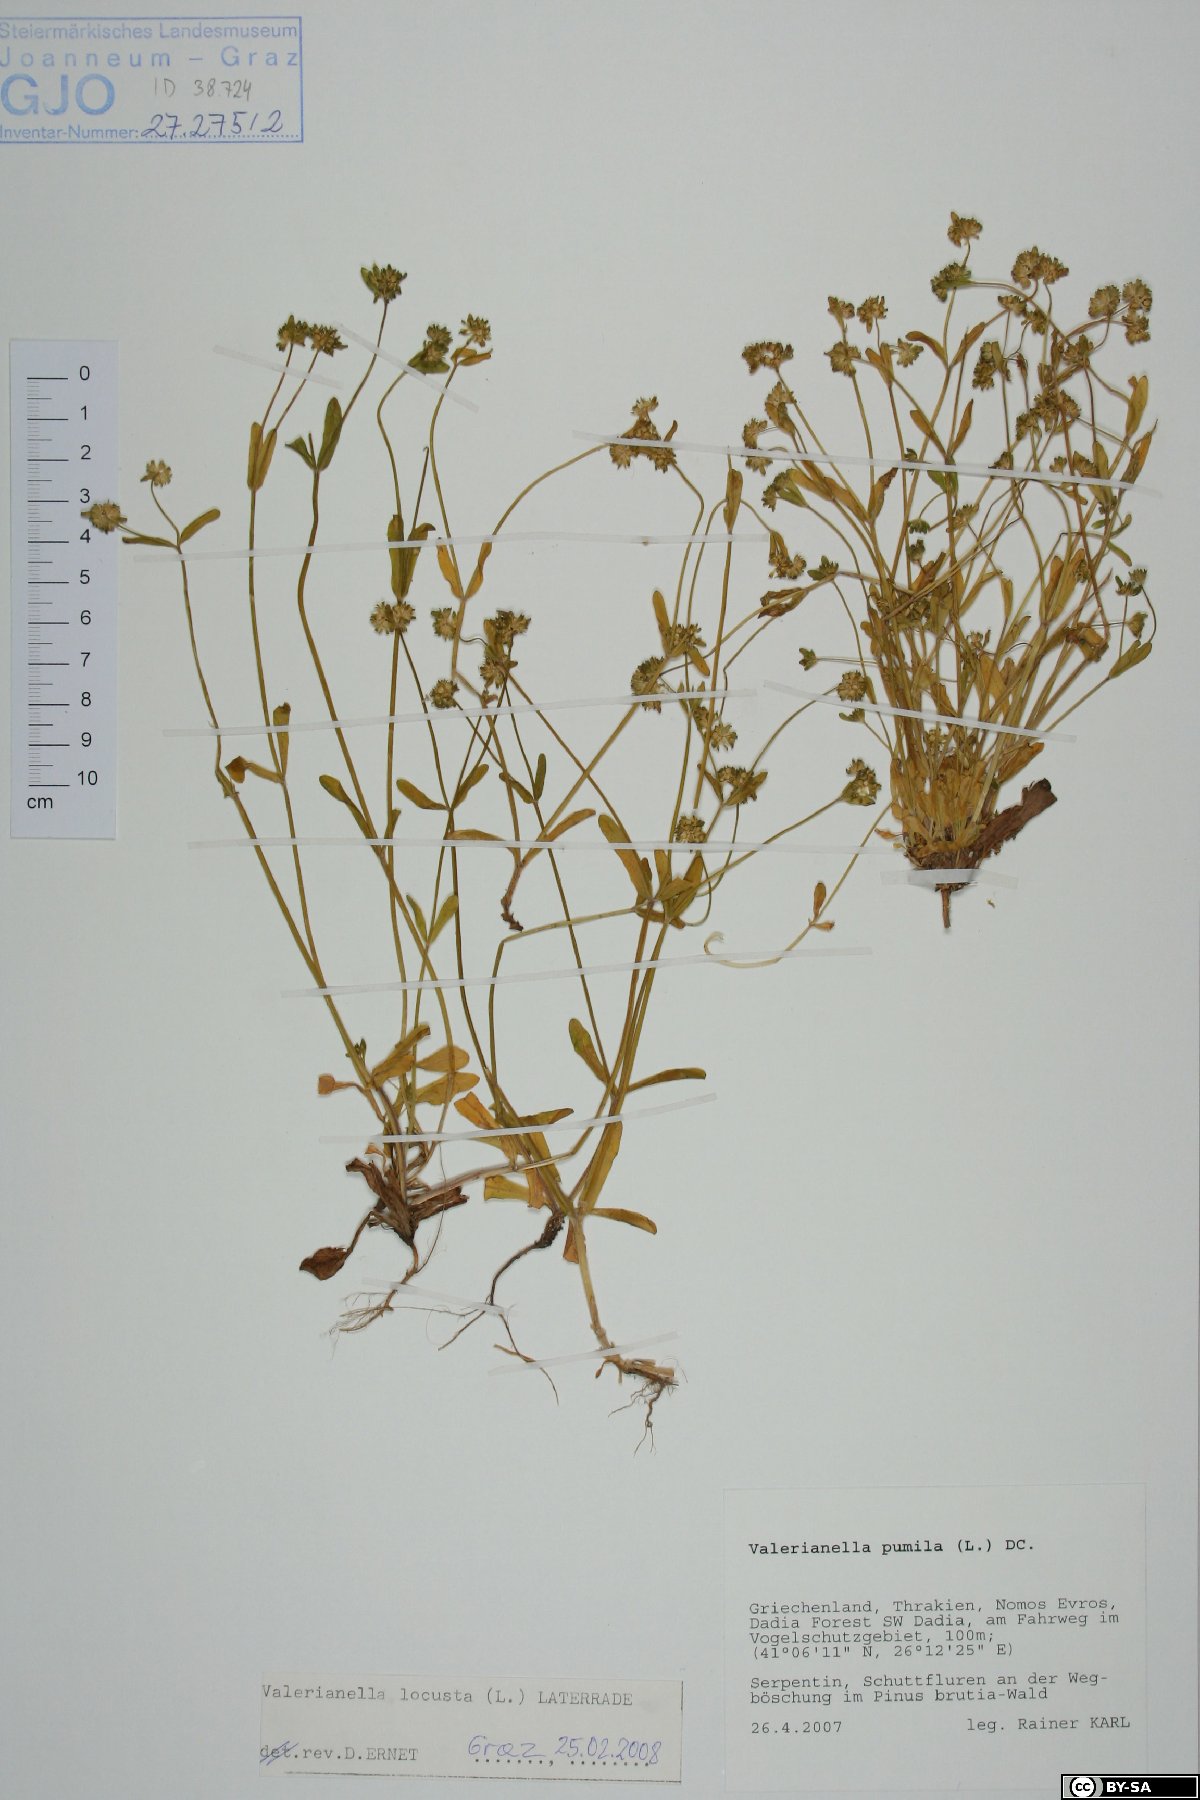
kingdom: Plantae
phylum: Tracheophyta
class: Magnoliopsida
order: Dipsacales
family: Caprifoliaceae
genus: Valerianella
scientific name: Valerianella locusta
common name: Common cornsalad
